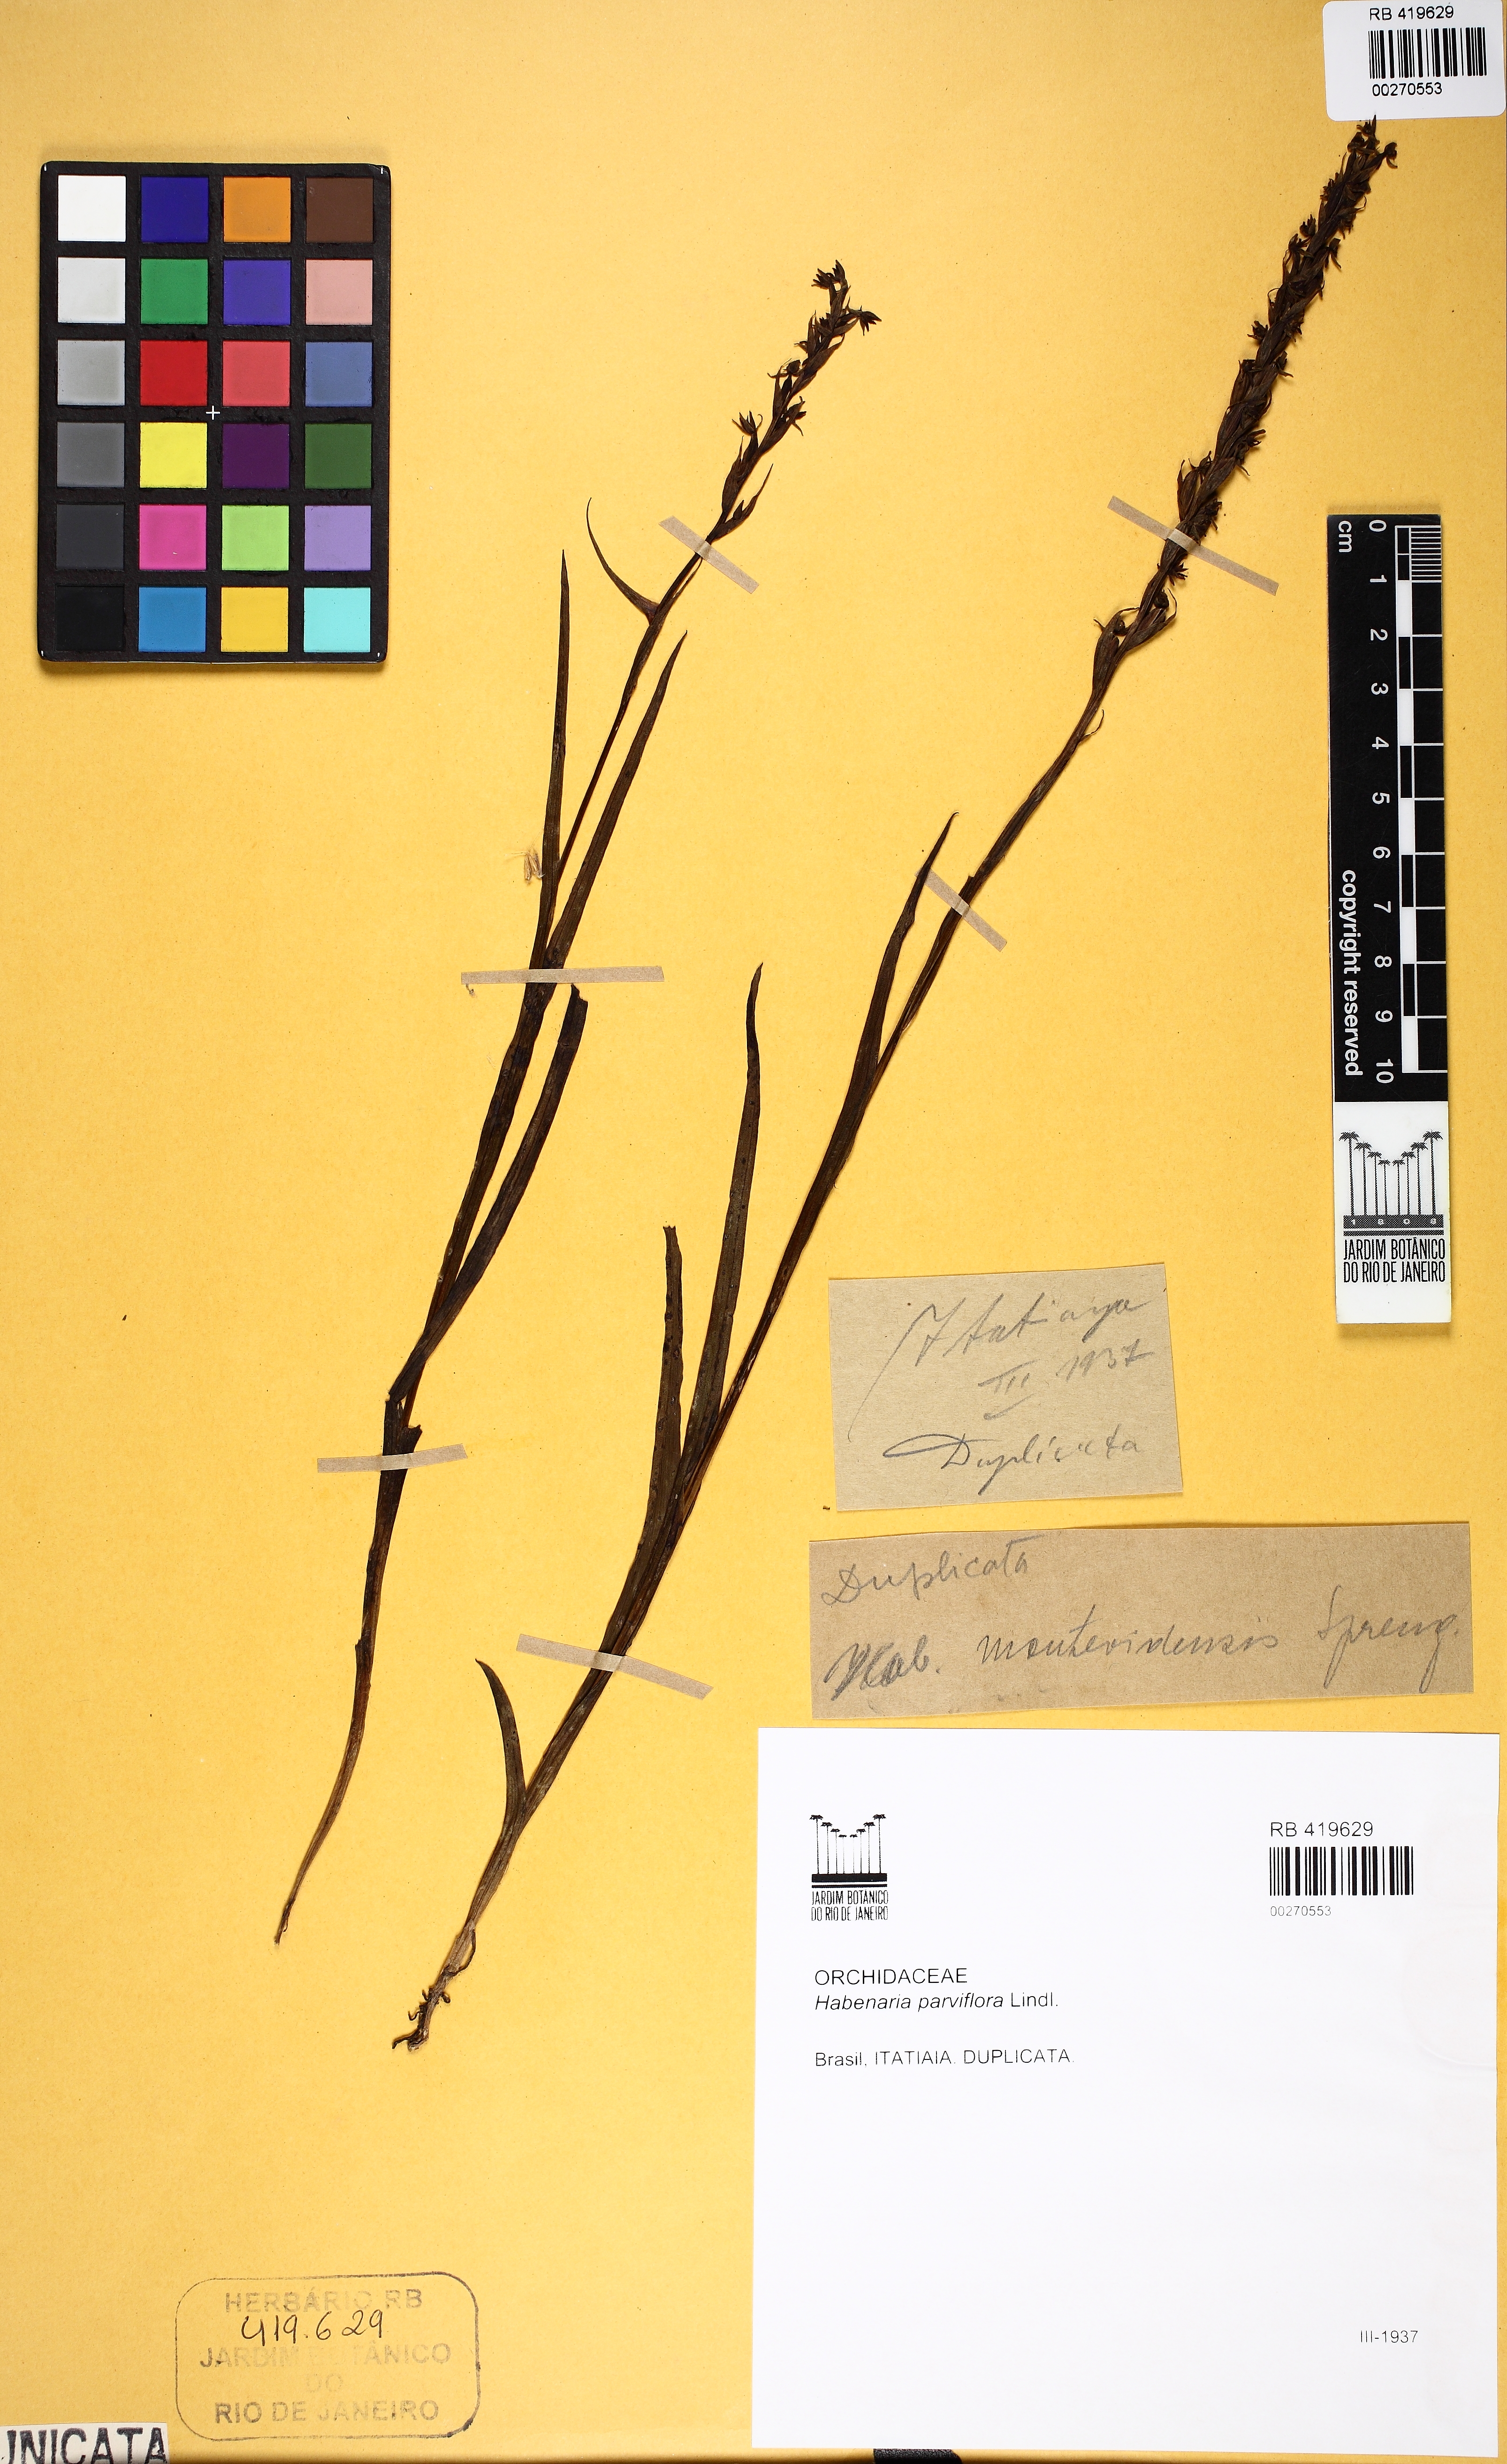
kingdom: Plantae
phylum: Tracheophyta
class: Liliopsida
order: Asparagales
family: Orchidaceae
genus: Habenaria
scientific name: Habenaria paulensis
